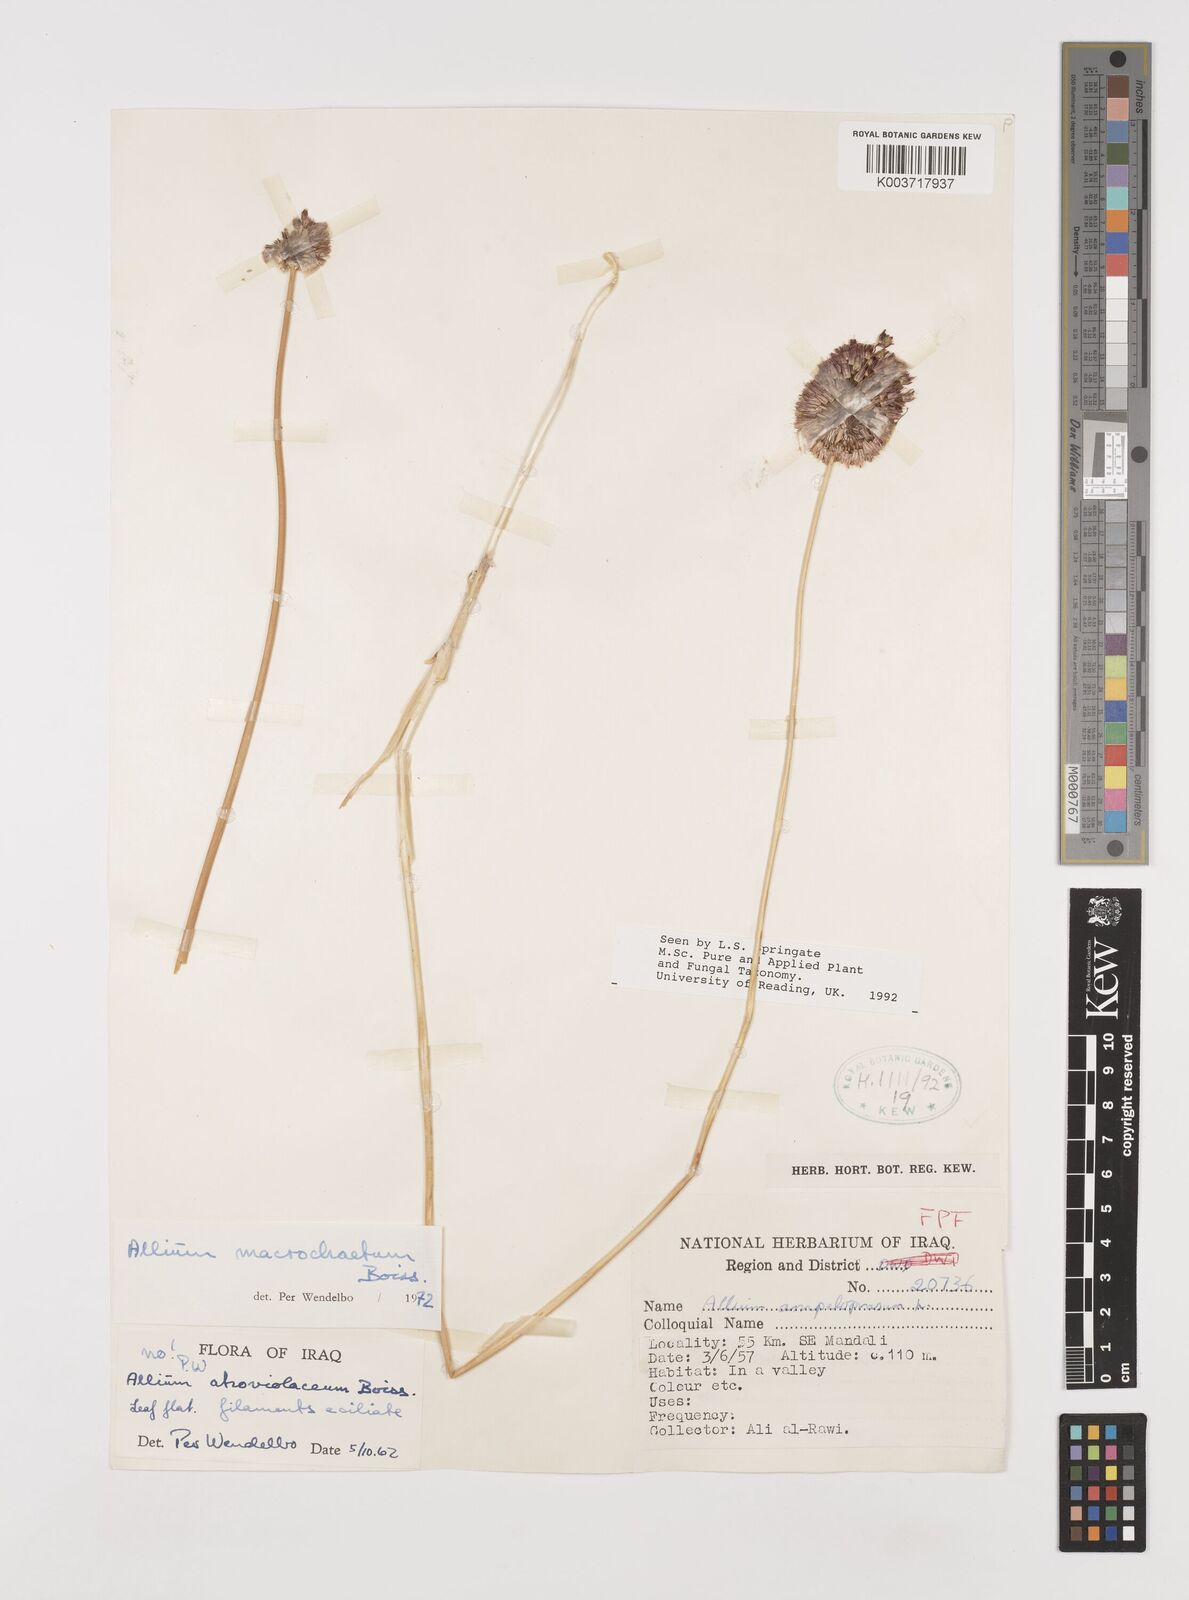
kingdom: Plantae
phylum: Tracheophyta
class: Liliopsida
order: Asparagales
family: Amaryllidaceae
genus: Allium
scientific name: Allium macrochaetum
